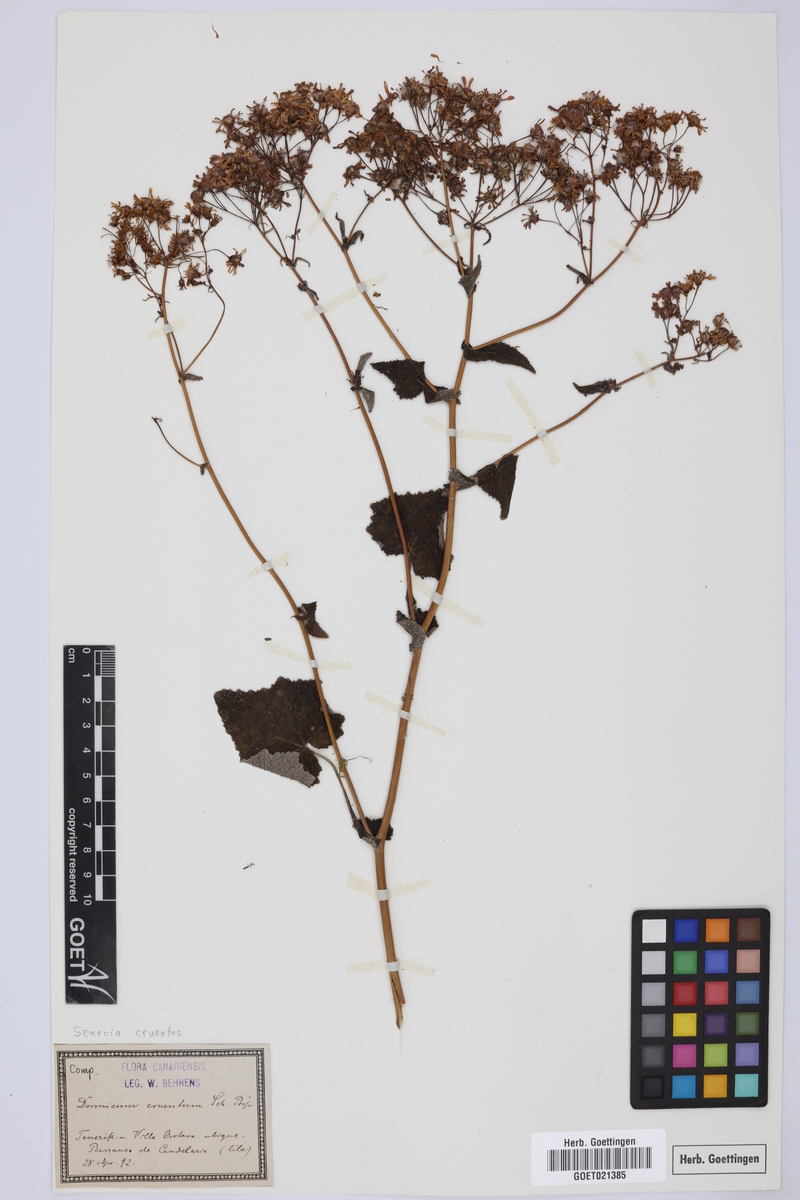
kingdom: Plantae
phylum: Tracheophyta
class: Magnoliopsida
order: Asterales
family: Asteraceae
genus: Pericallis
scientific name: Pericallis cruenta
